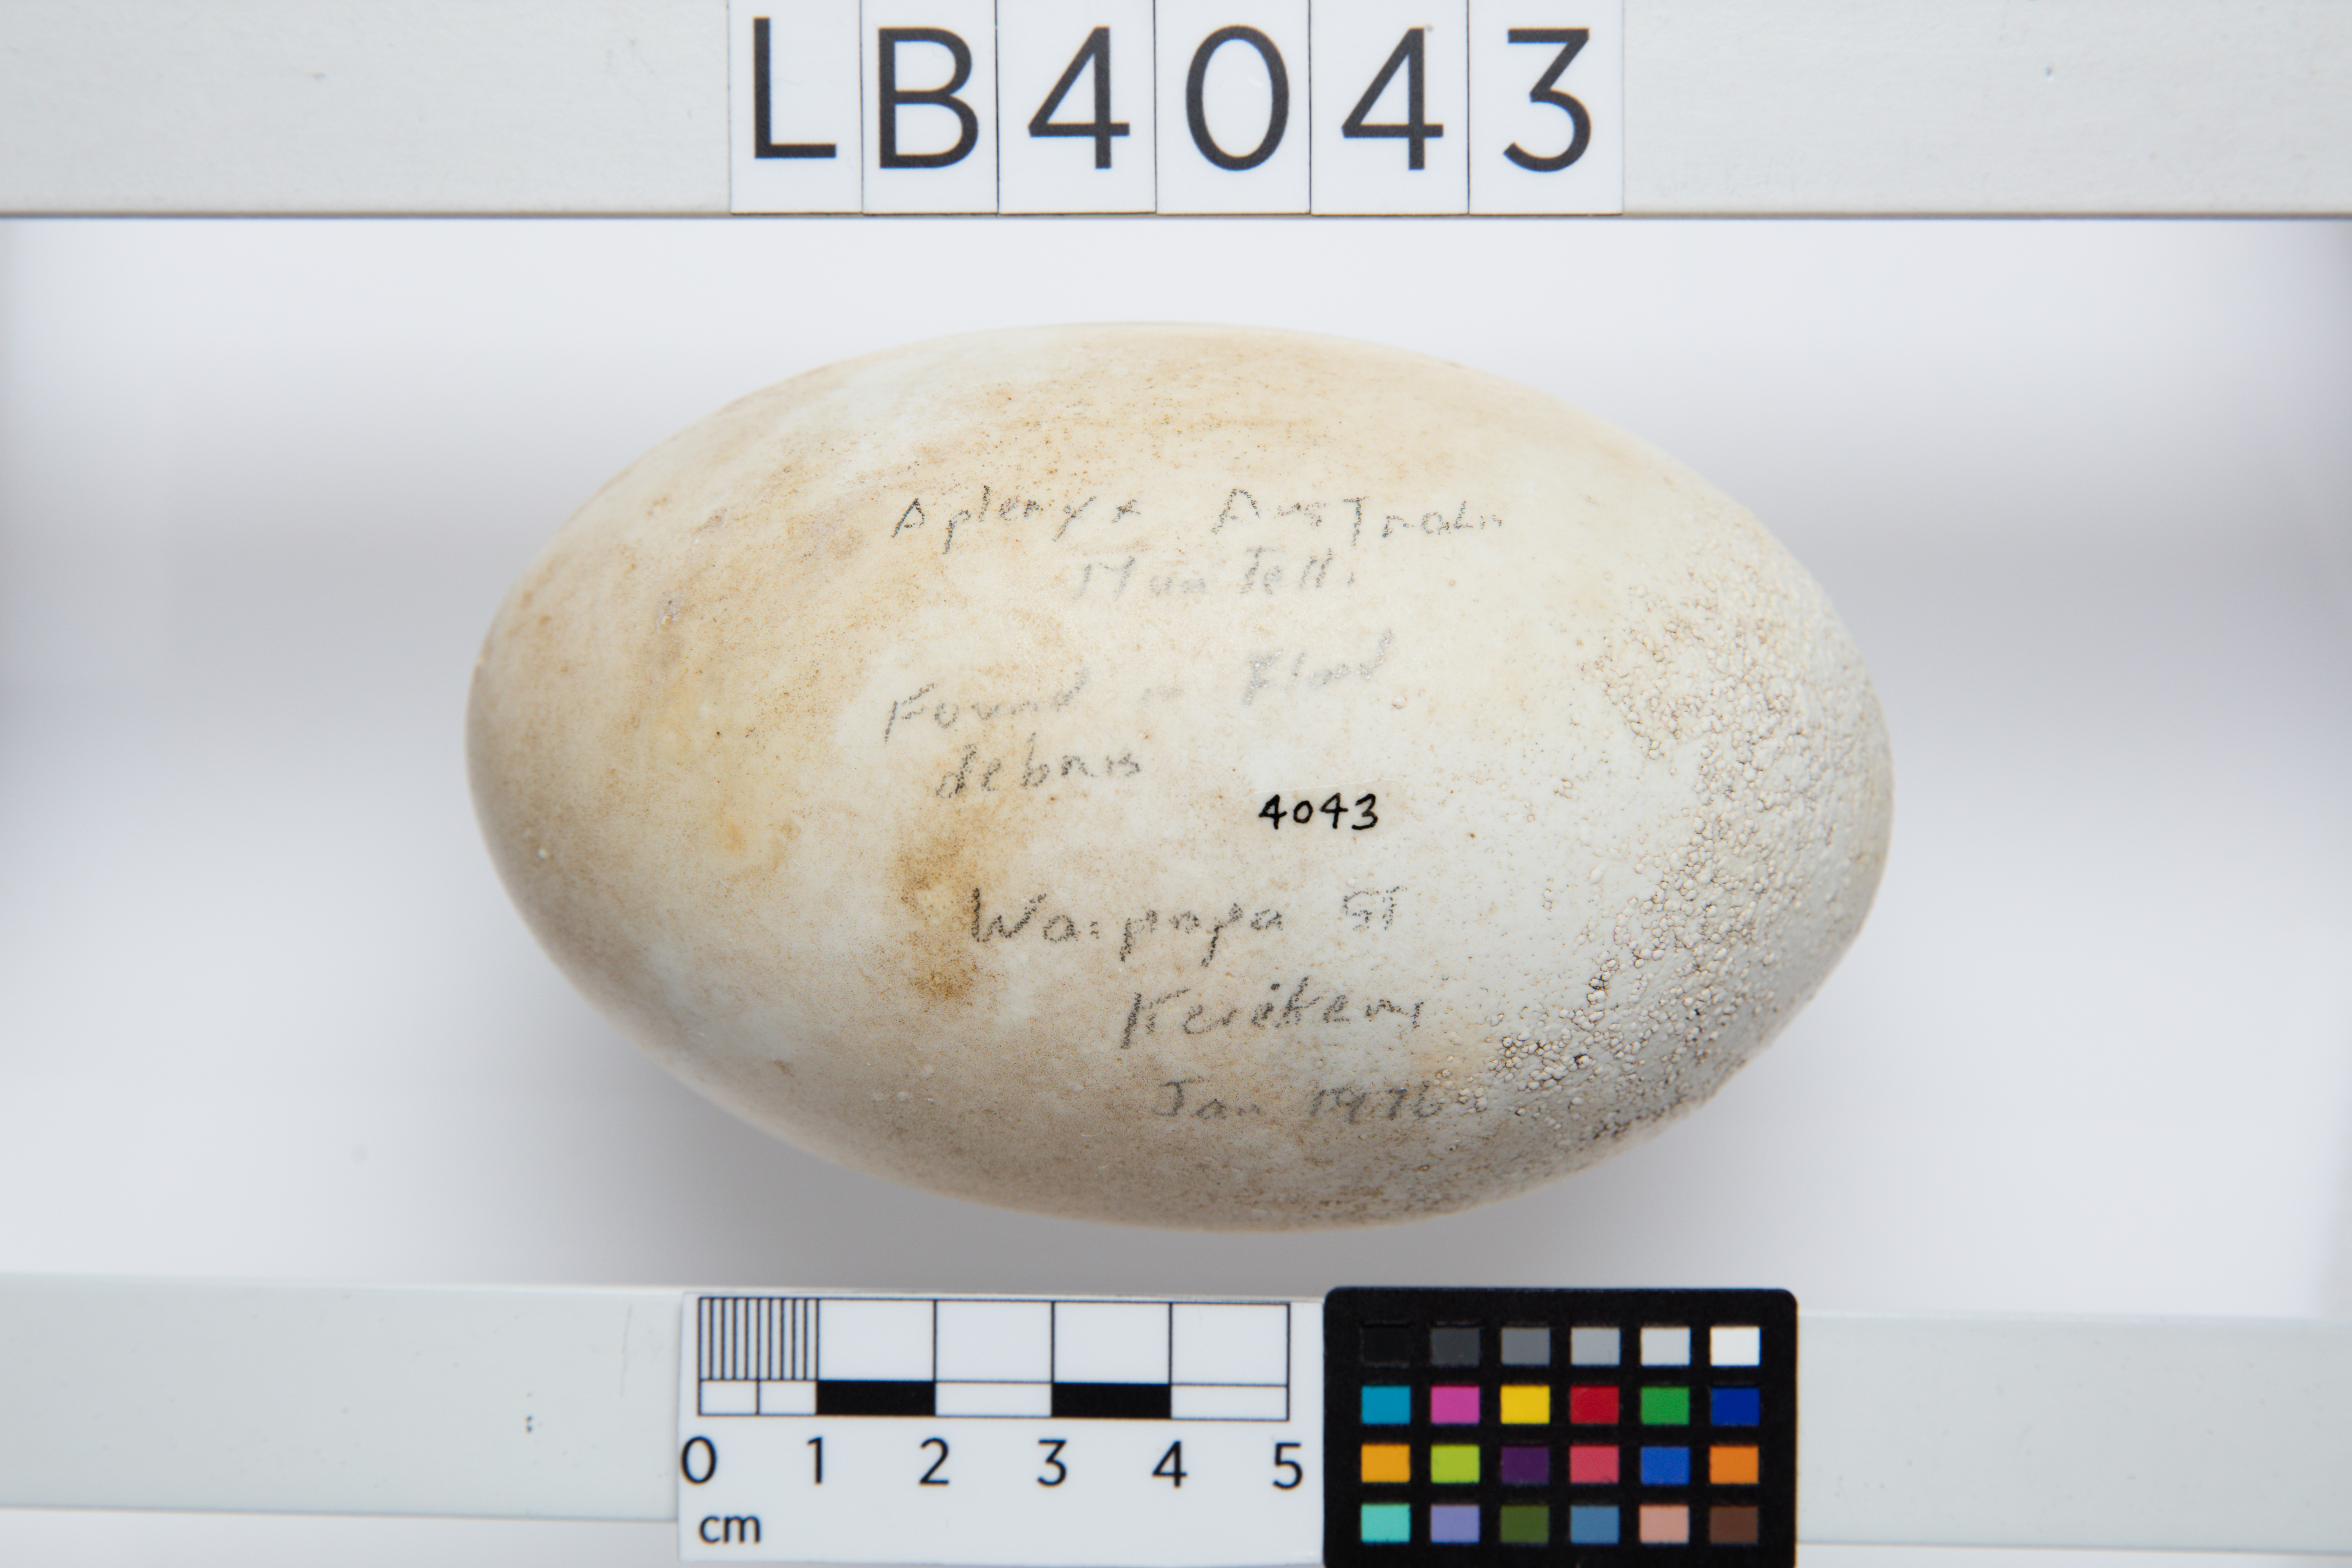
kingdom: Animalia
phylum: Chordata
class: Aves
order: Apterygiformes
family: Apterygidae
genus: Apteryx
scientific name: Apteryx mantelli
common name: North island brown kiwi
